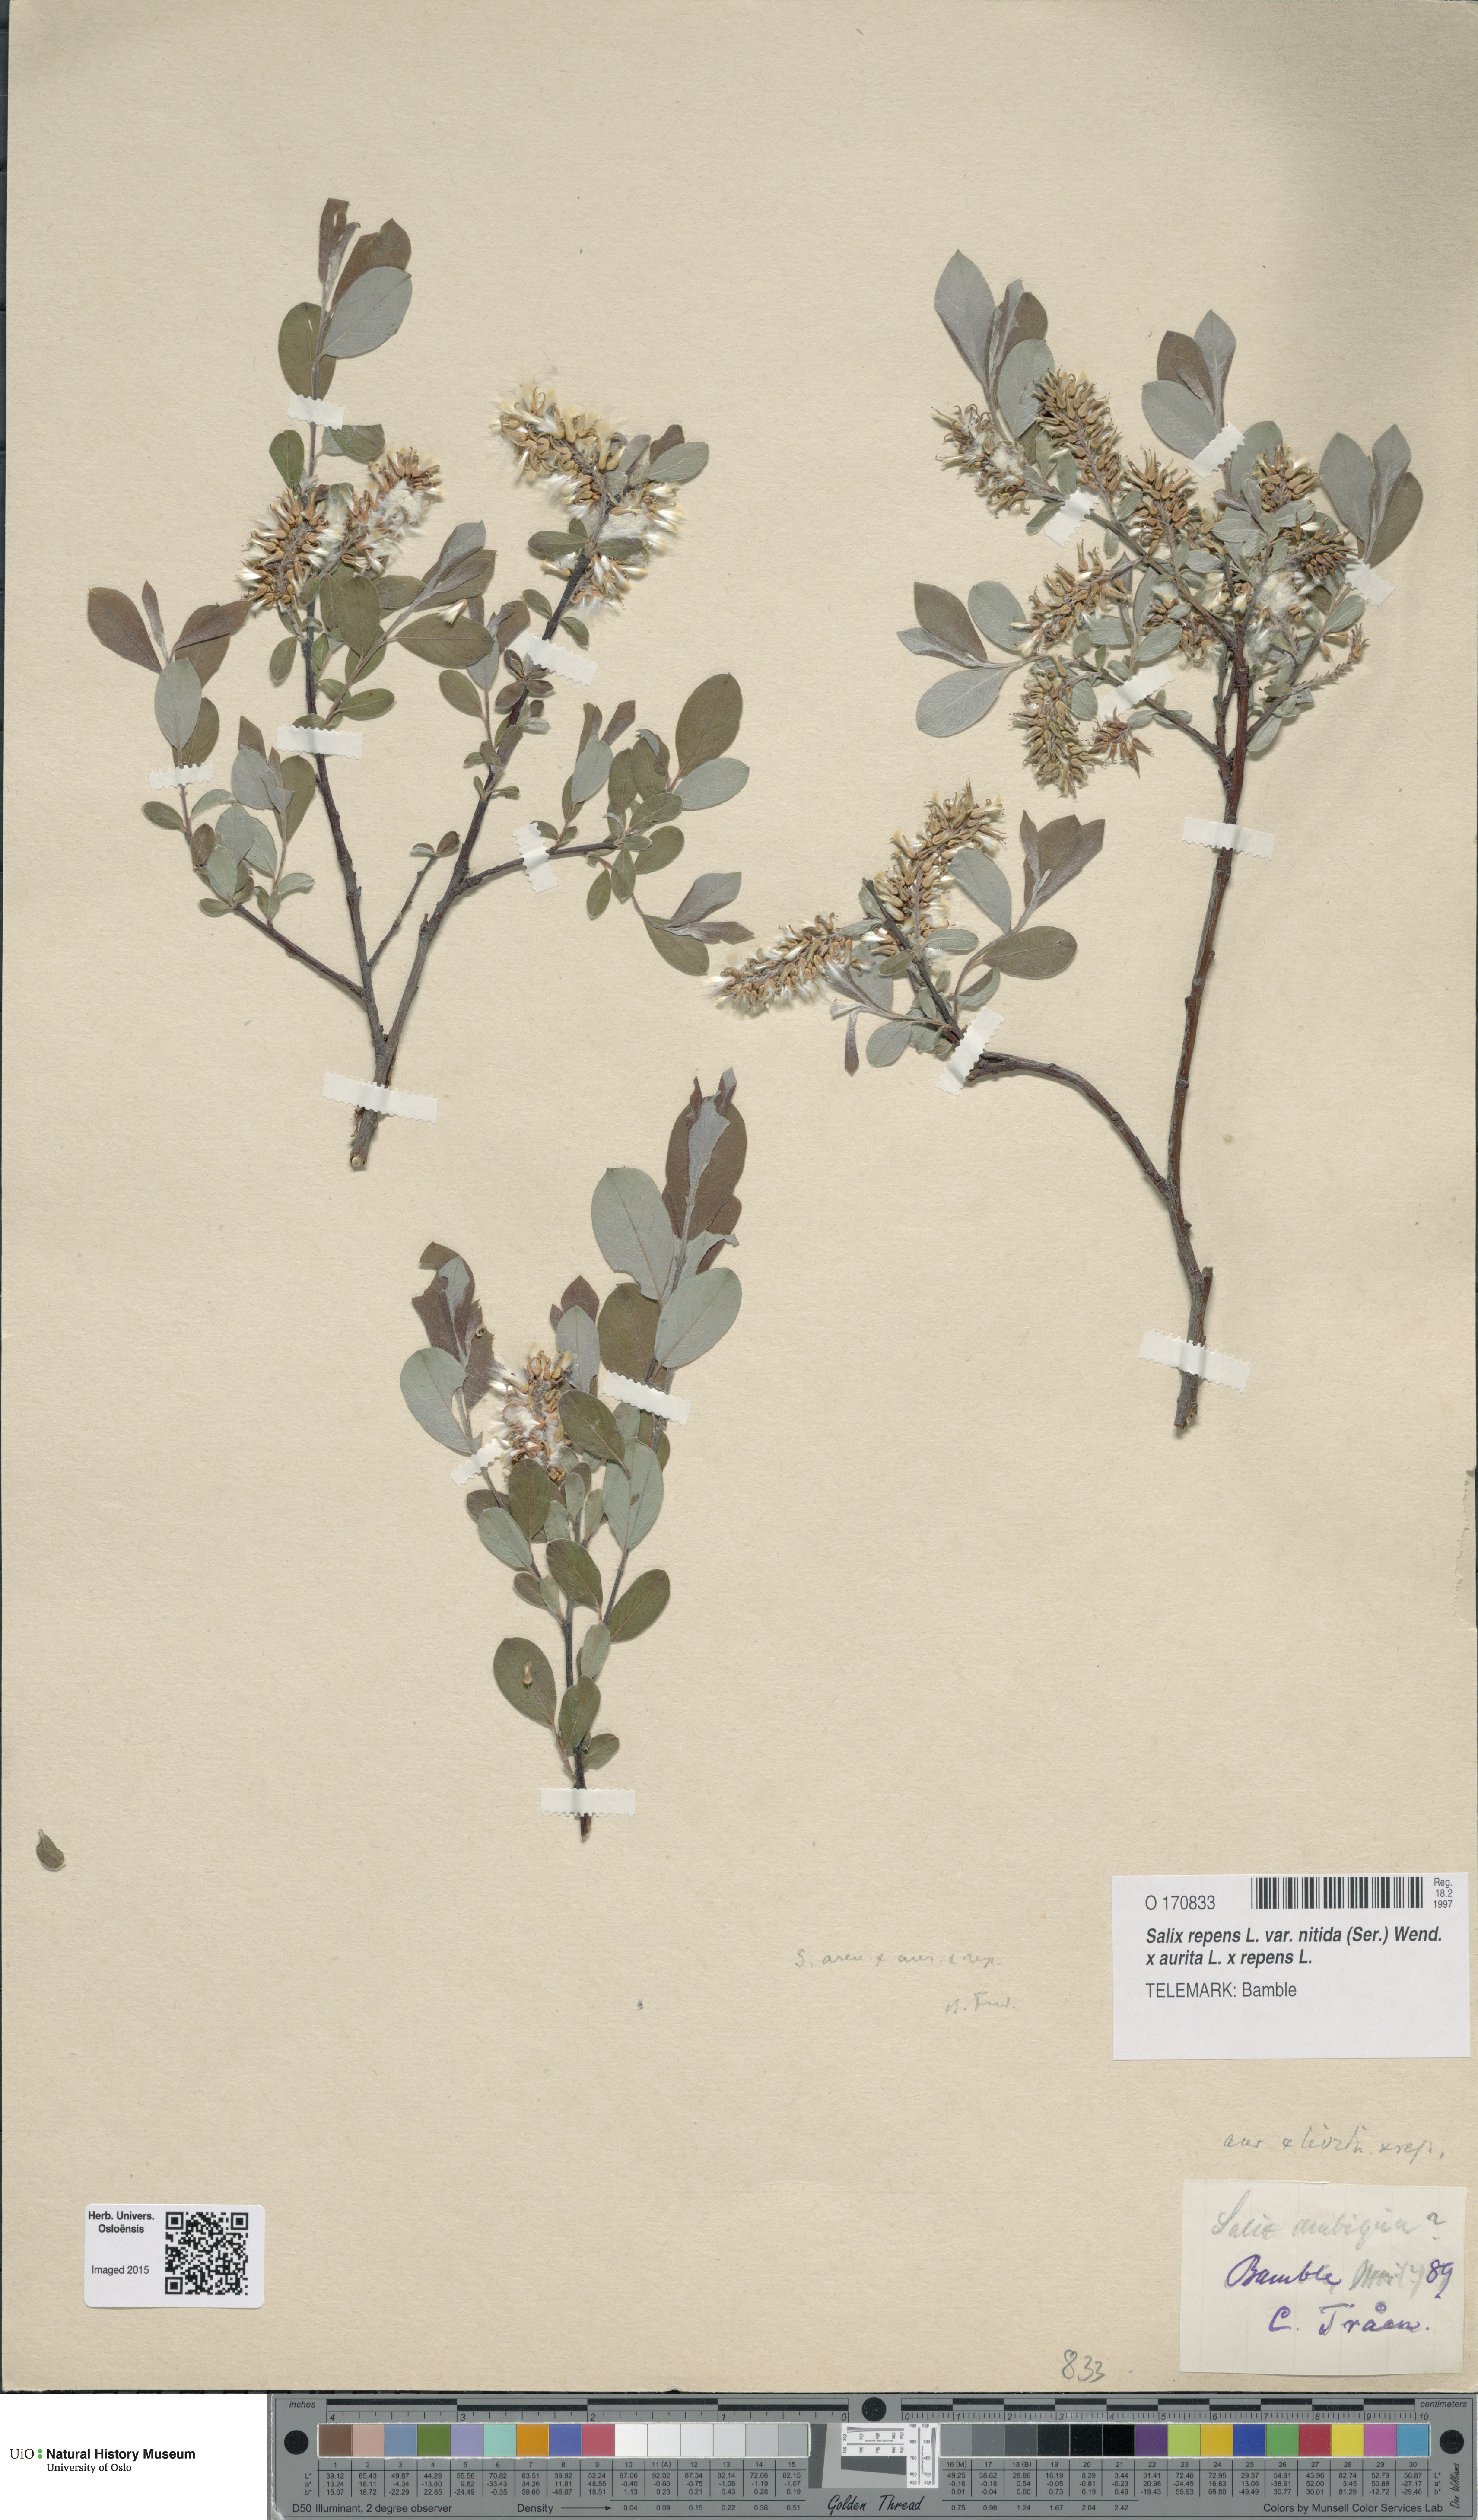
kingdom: Plantae
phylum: Tracheophyta
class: Magnoliopsida
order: Malpighiales
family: Salicaceae
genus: Salix
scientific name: Salix
